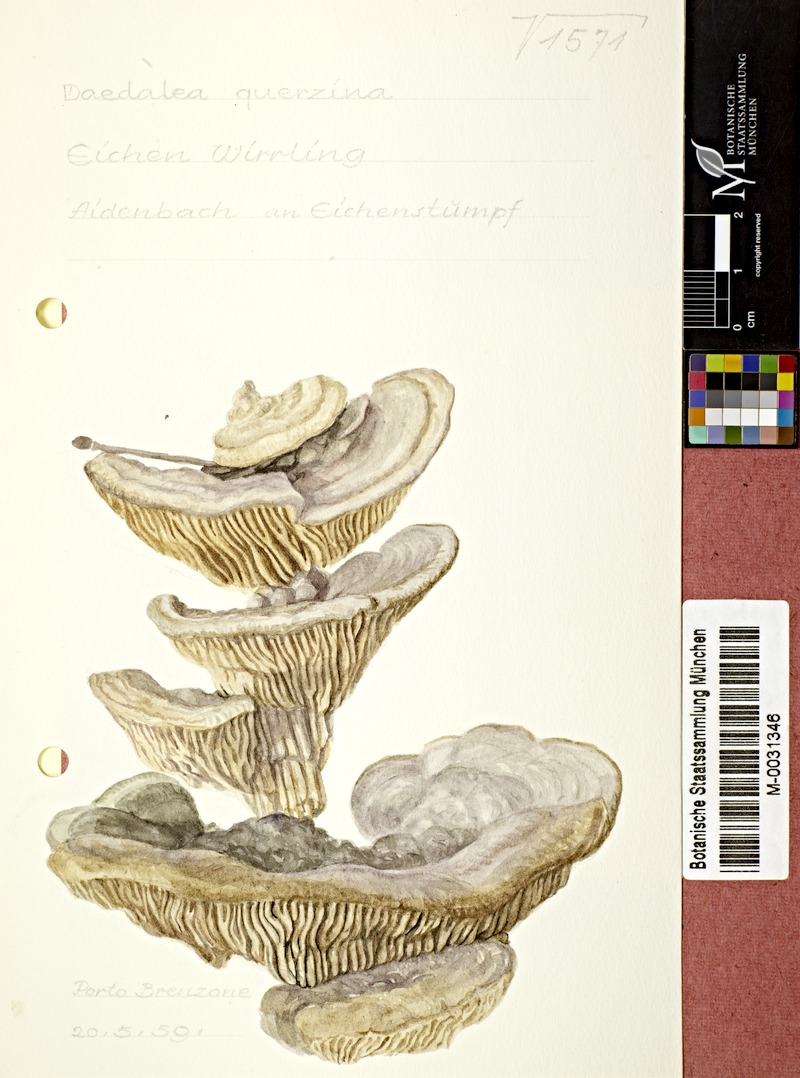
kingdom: Fungi
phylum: Basidiomycota
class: Agaricomycetes
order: Polyporales
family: Fomitopsidaceae
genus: Daedalea
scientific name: Daedalea quercina
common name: Oak mazegill
